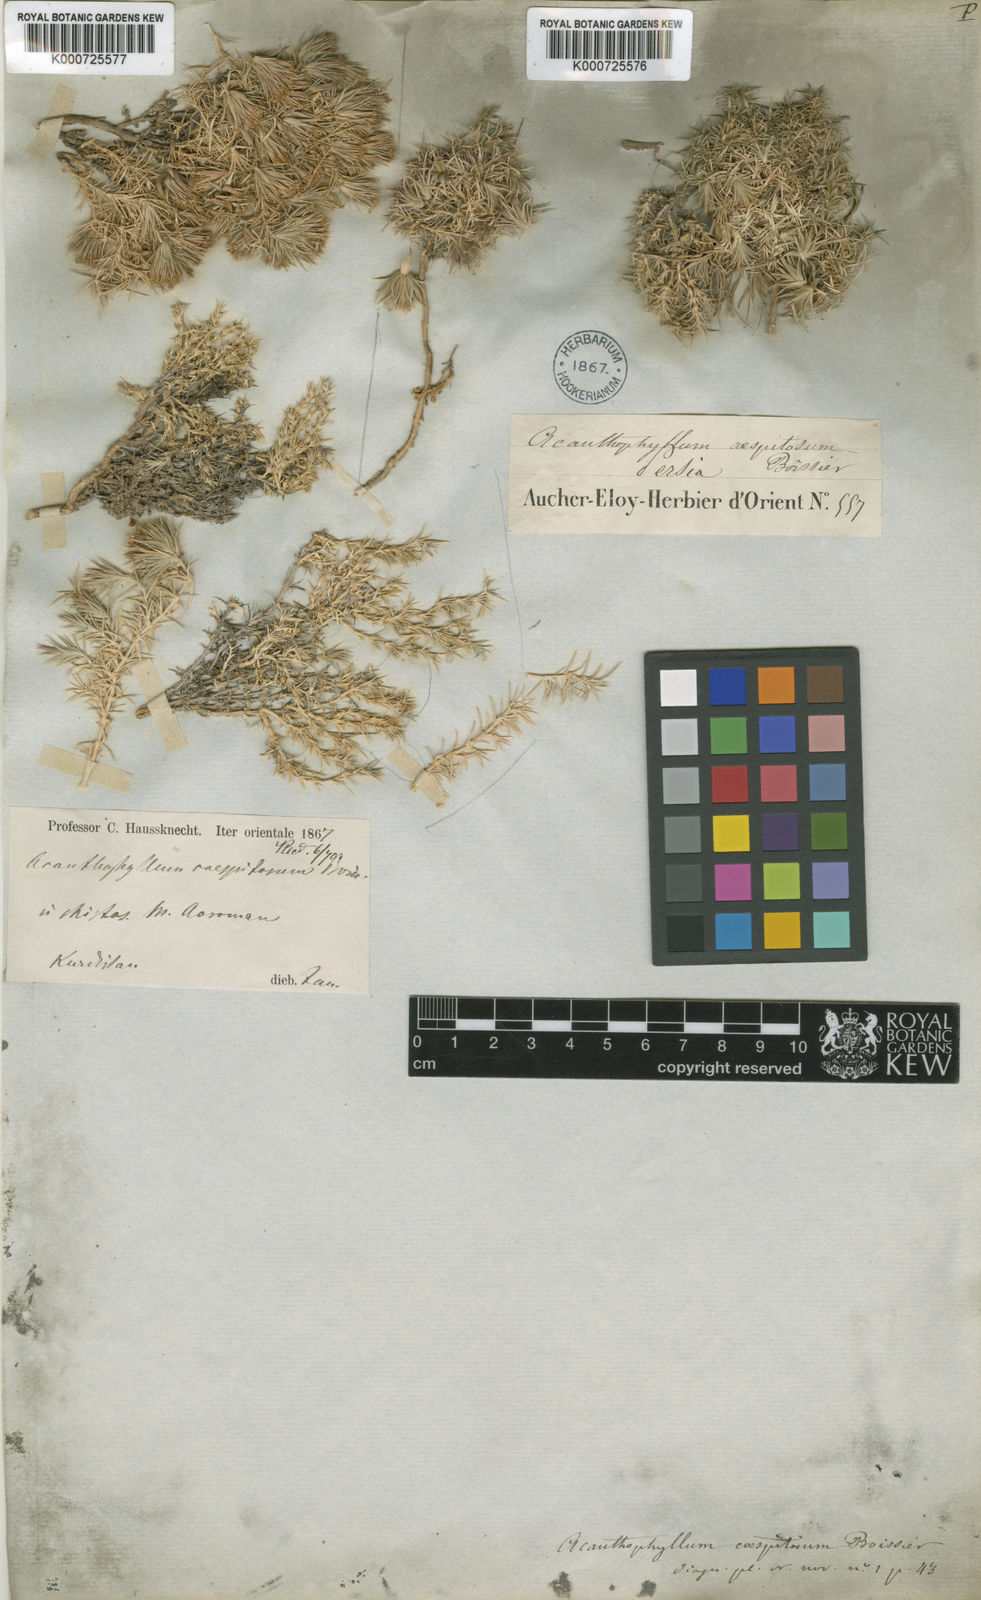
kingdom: Plantae
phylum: Tracheophyta
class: Magnoliopsida
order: Caryophyllales
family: Caryophyllaceae
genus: Acanthophyllum
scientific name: Acanthophyllum caespitosum
